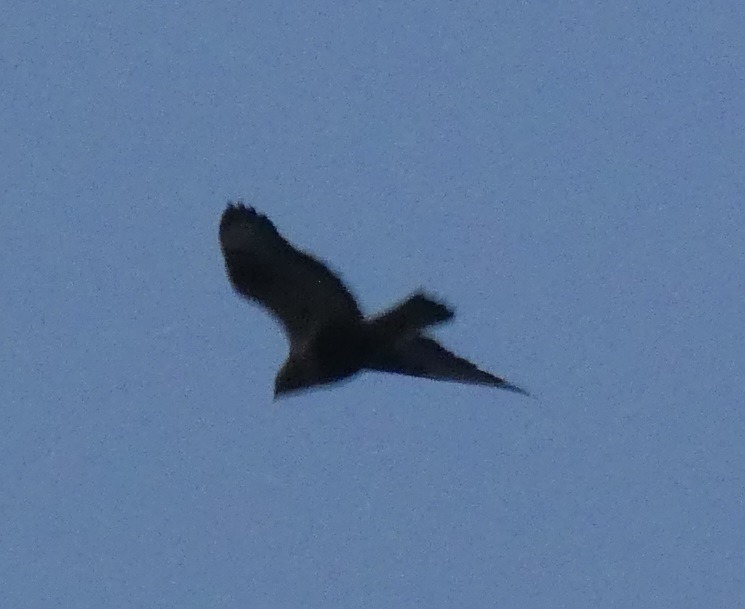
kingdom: Animalia
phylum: Chordata
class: Aves
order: Accipitriformes
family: Accipitridae
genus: Buteo
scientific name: Buteo lagopus
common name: Fjeldvåge
